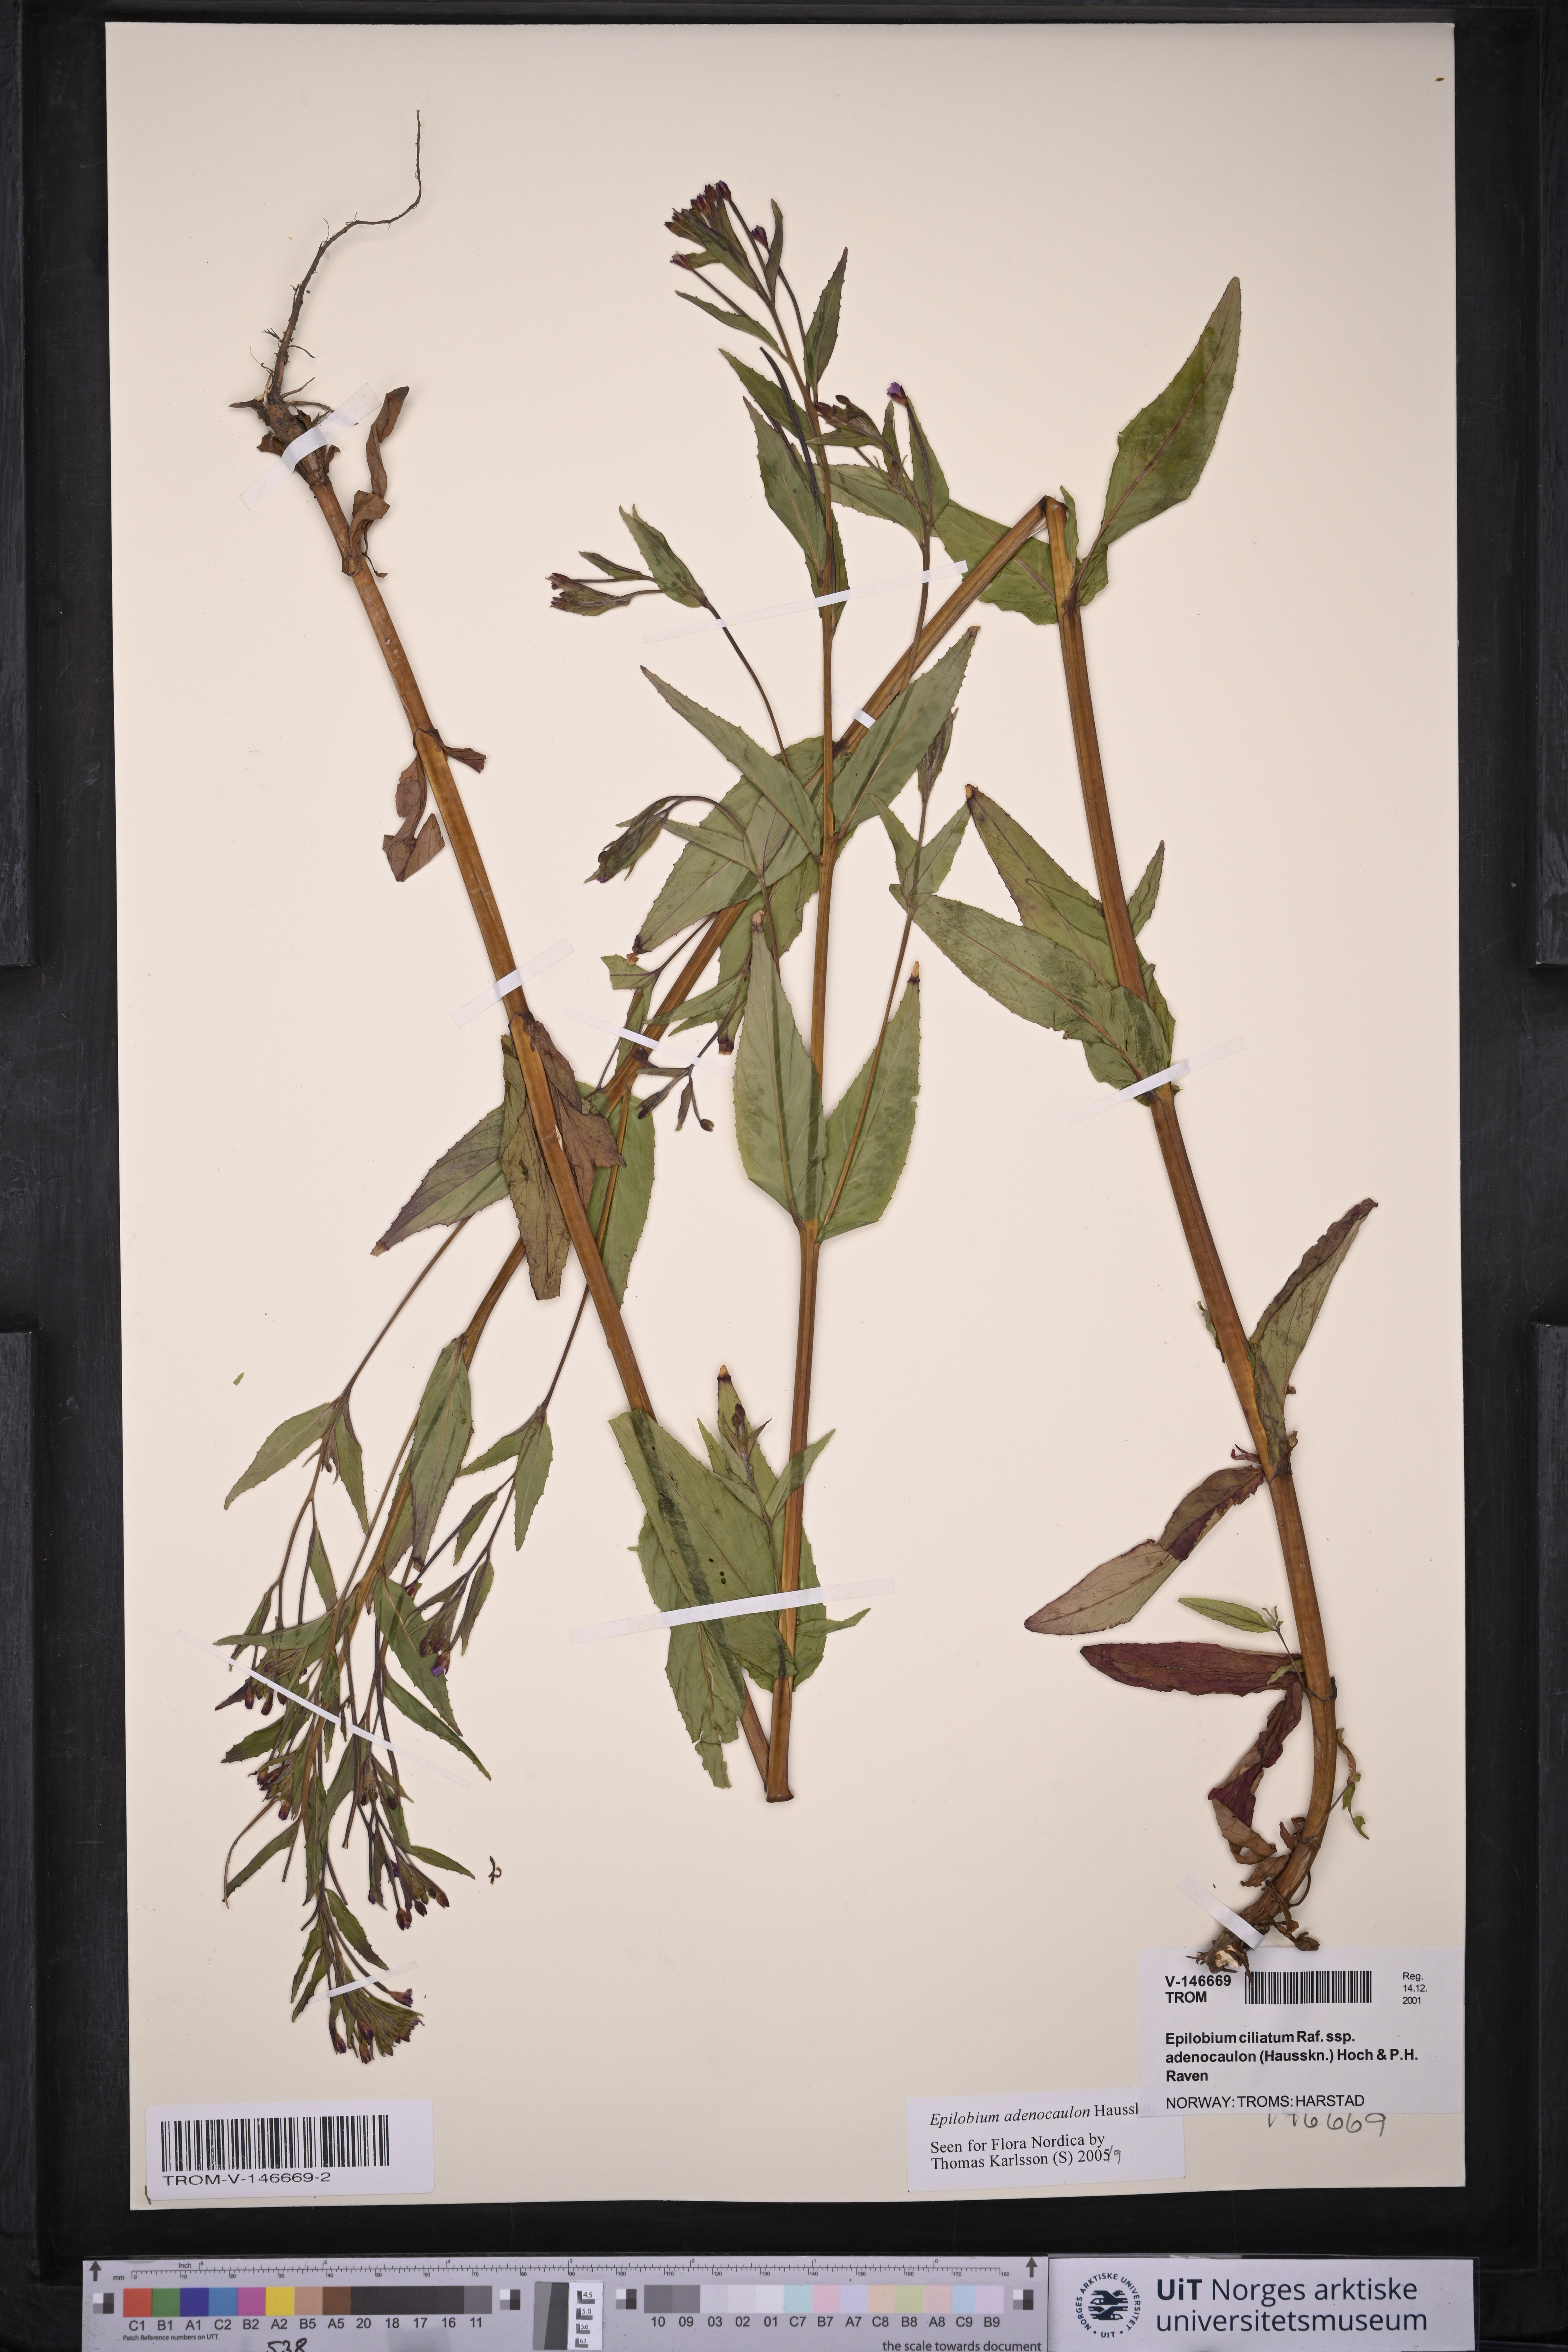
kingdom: Plantae
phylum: Tracheophyta
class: Magnoliopsida
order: Myrtales
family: Onagraceae
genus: Epilobium
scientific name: Epilobium ciliatum
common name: American willowherb
